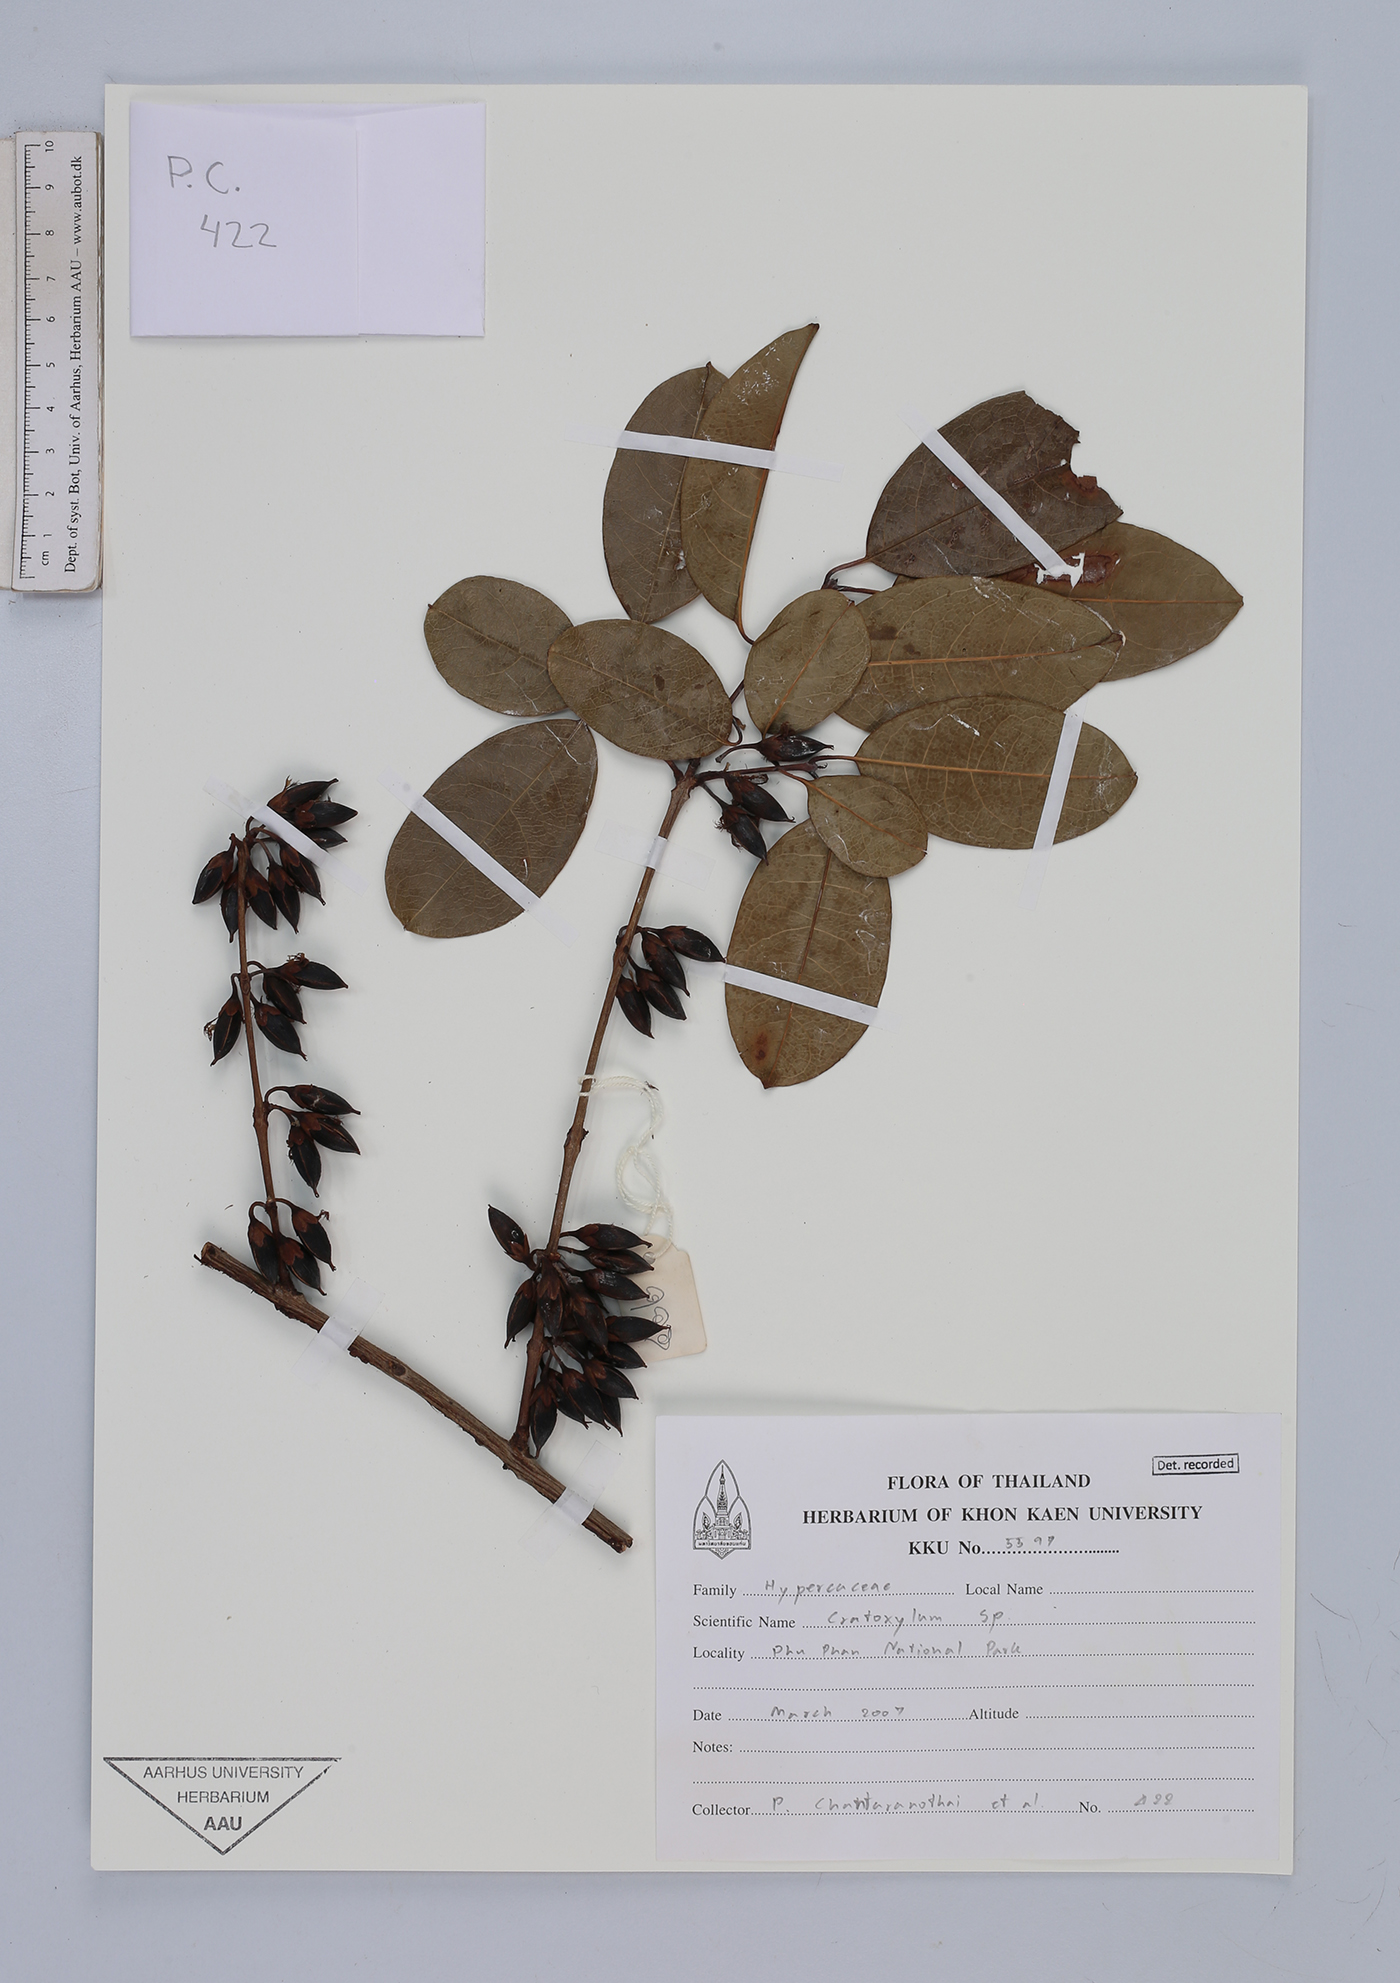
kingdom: Plantae
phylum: Tracheophyta
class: Magnoliopsida
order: Malpighiales
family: Hypericaceae
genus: Cratoxylum
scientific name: Cratoxylum
